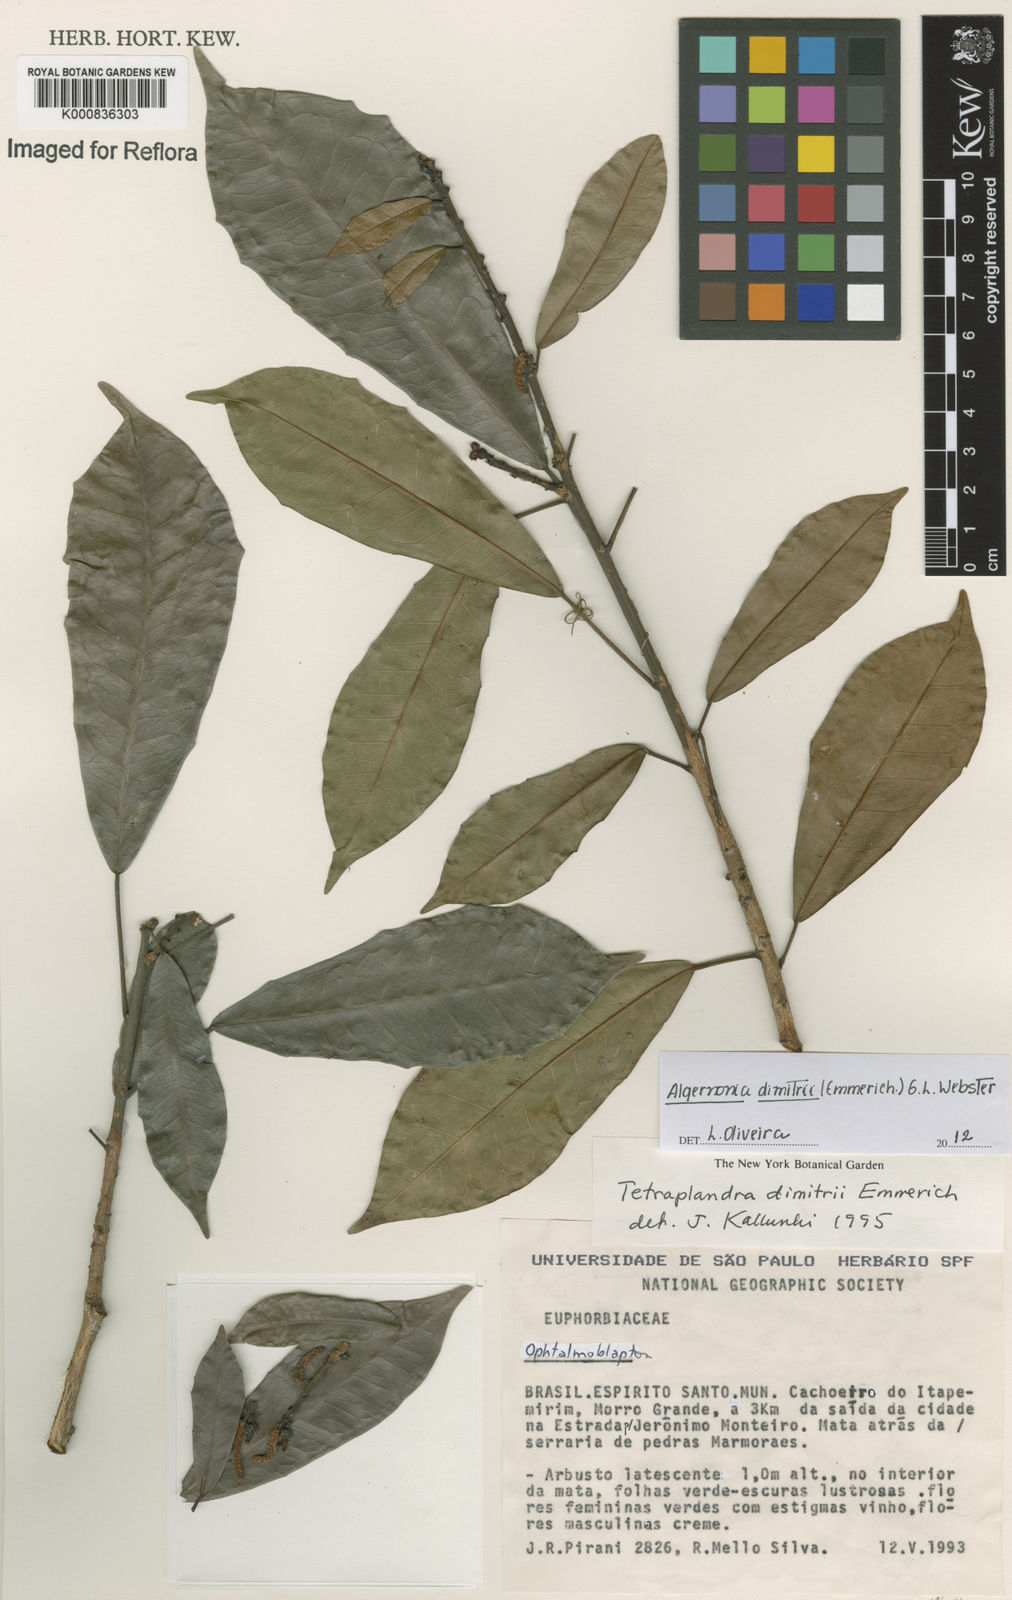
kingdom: Plantae
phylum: Tracheophyta
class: Magnoliopsida
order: Malpighiales
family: Euphorbiaceae
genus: Algernonia
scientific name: Algernonia dimitrii
